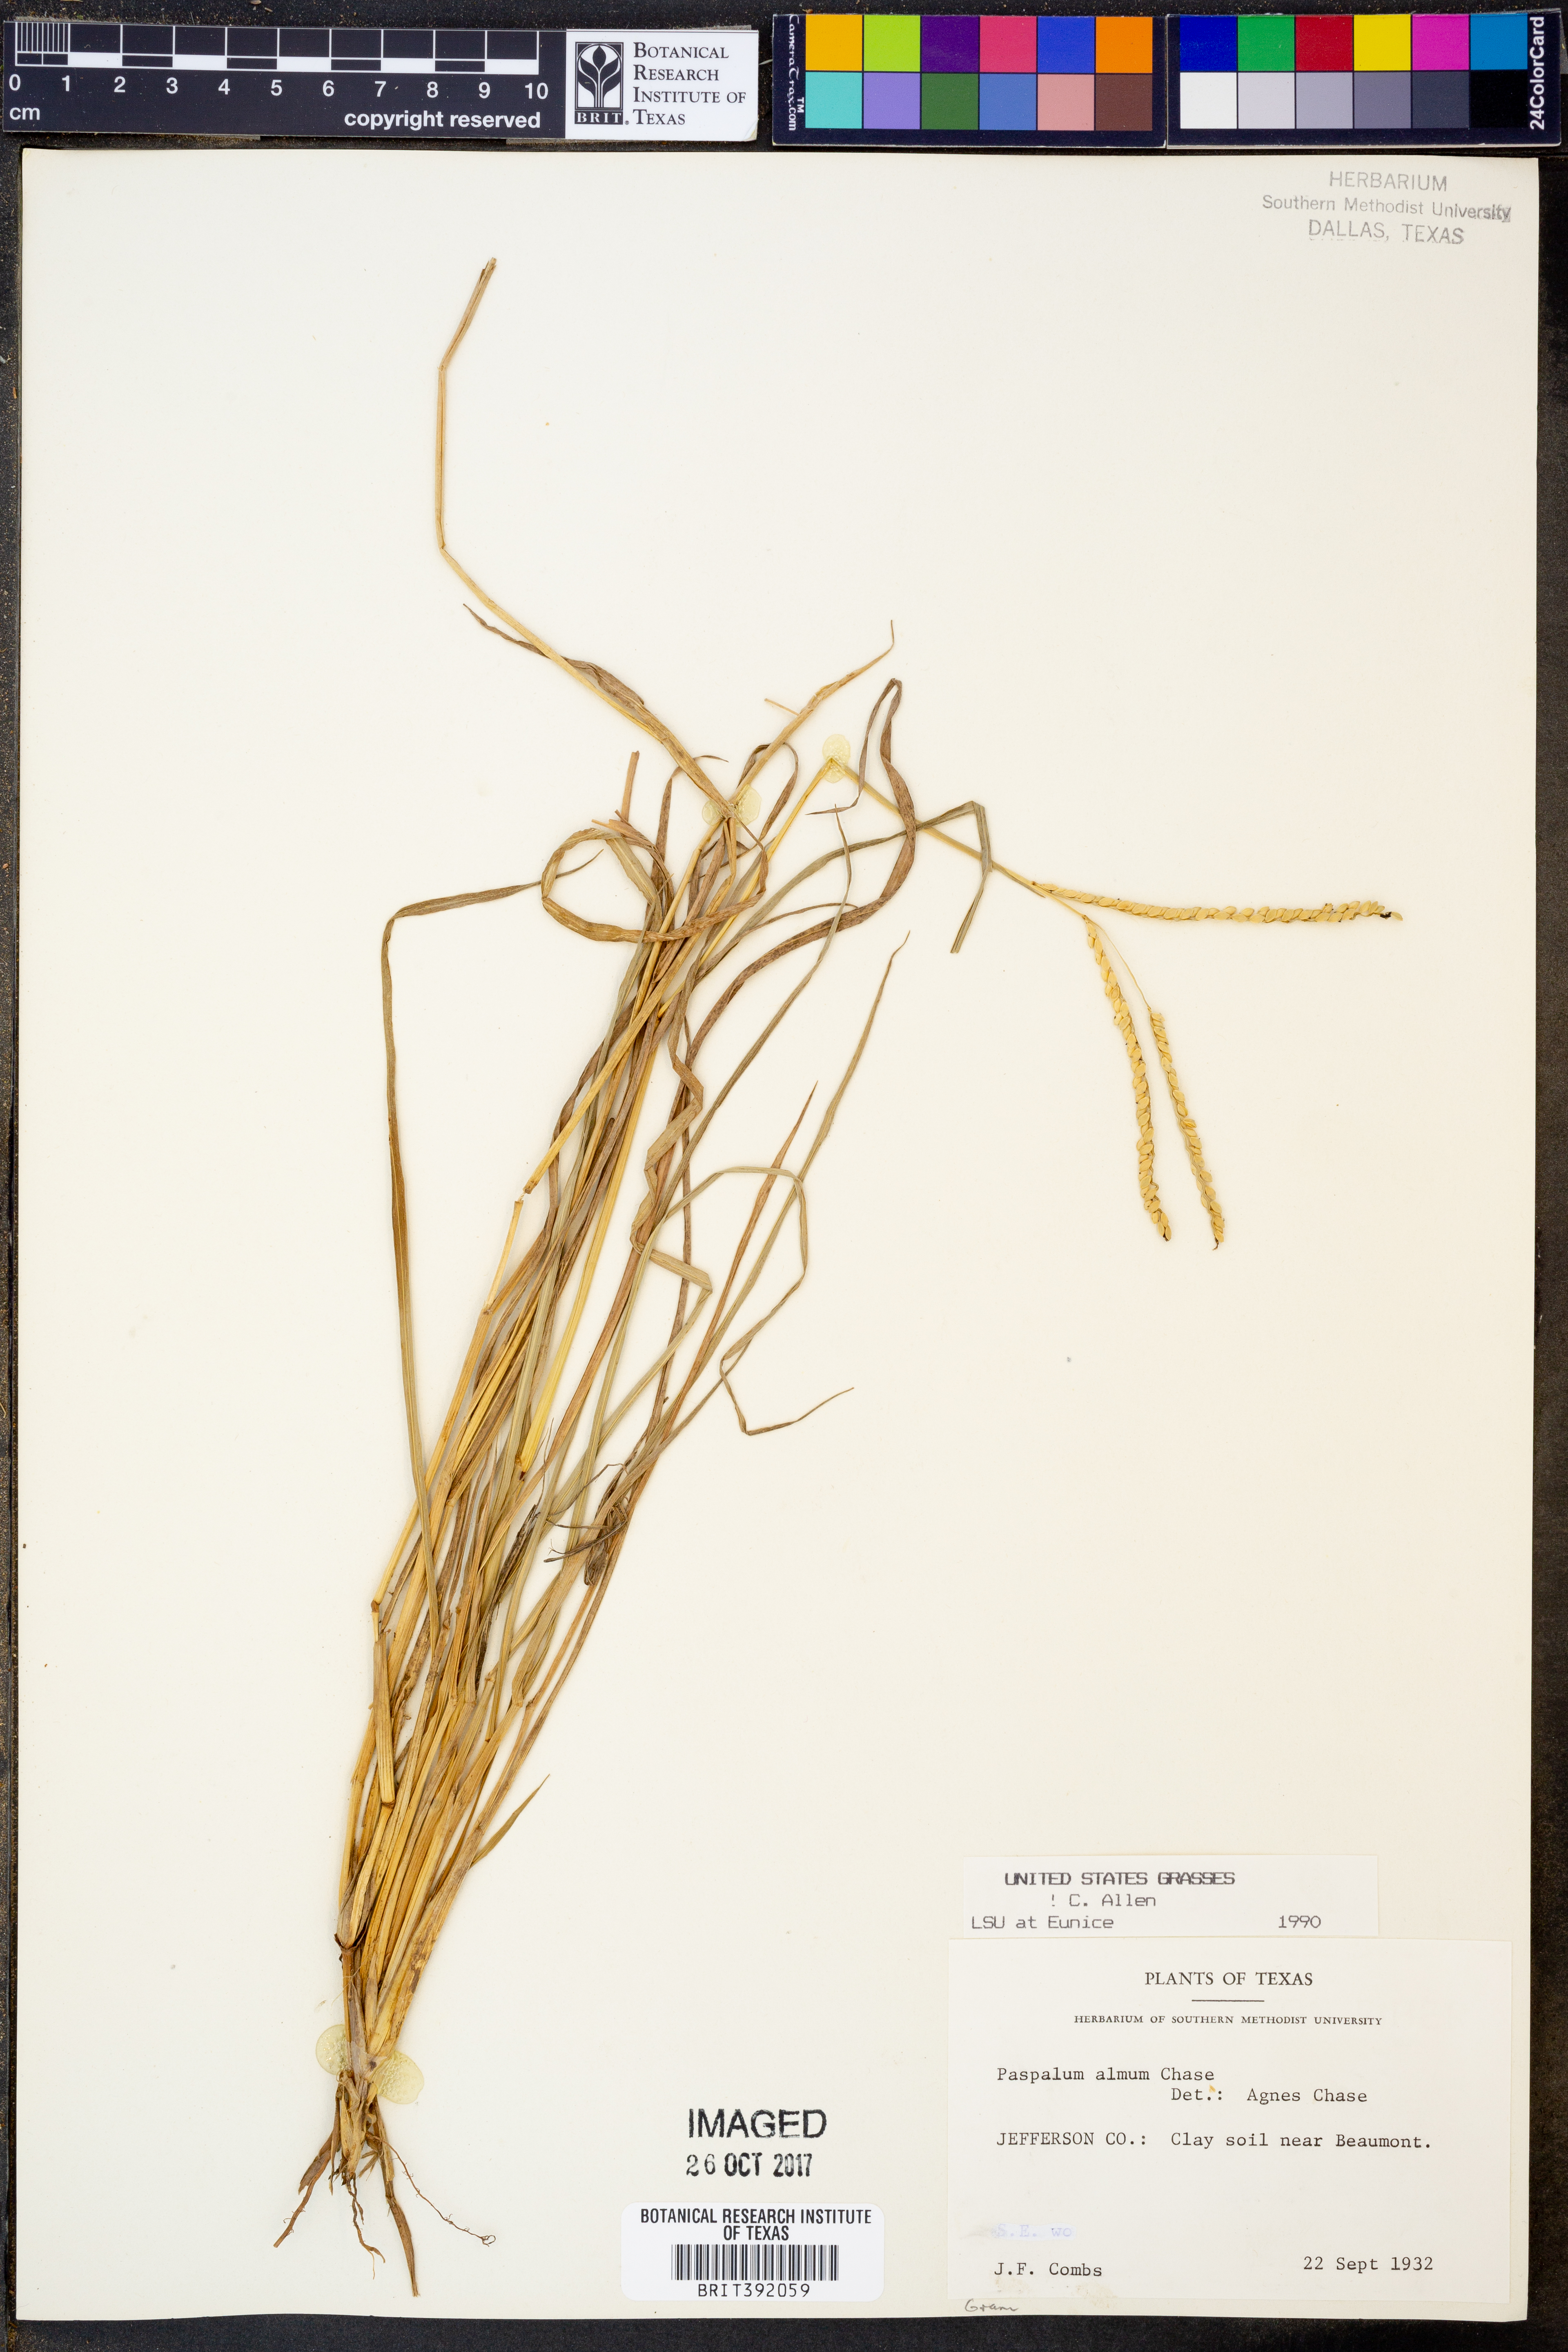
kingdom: Plantae
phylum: Tracheophyta
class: Liliopsida
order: Poales
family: Poaceae
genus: Paspalum
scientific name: Paspalum almum
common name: Comb's crowngrass
